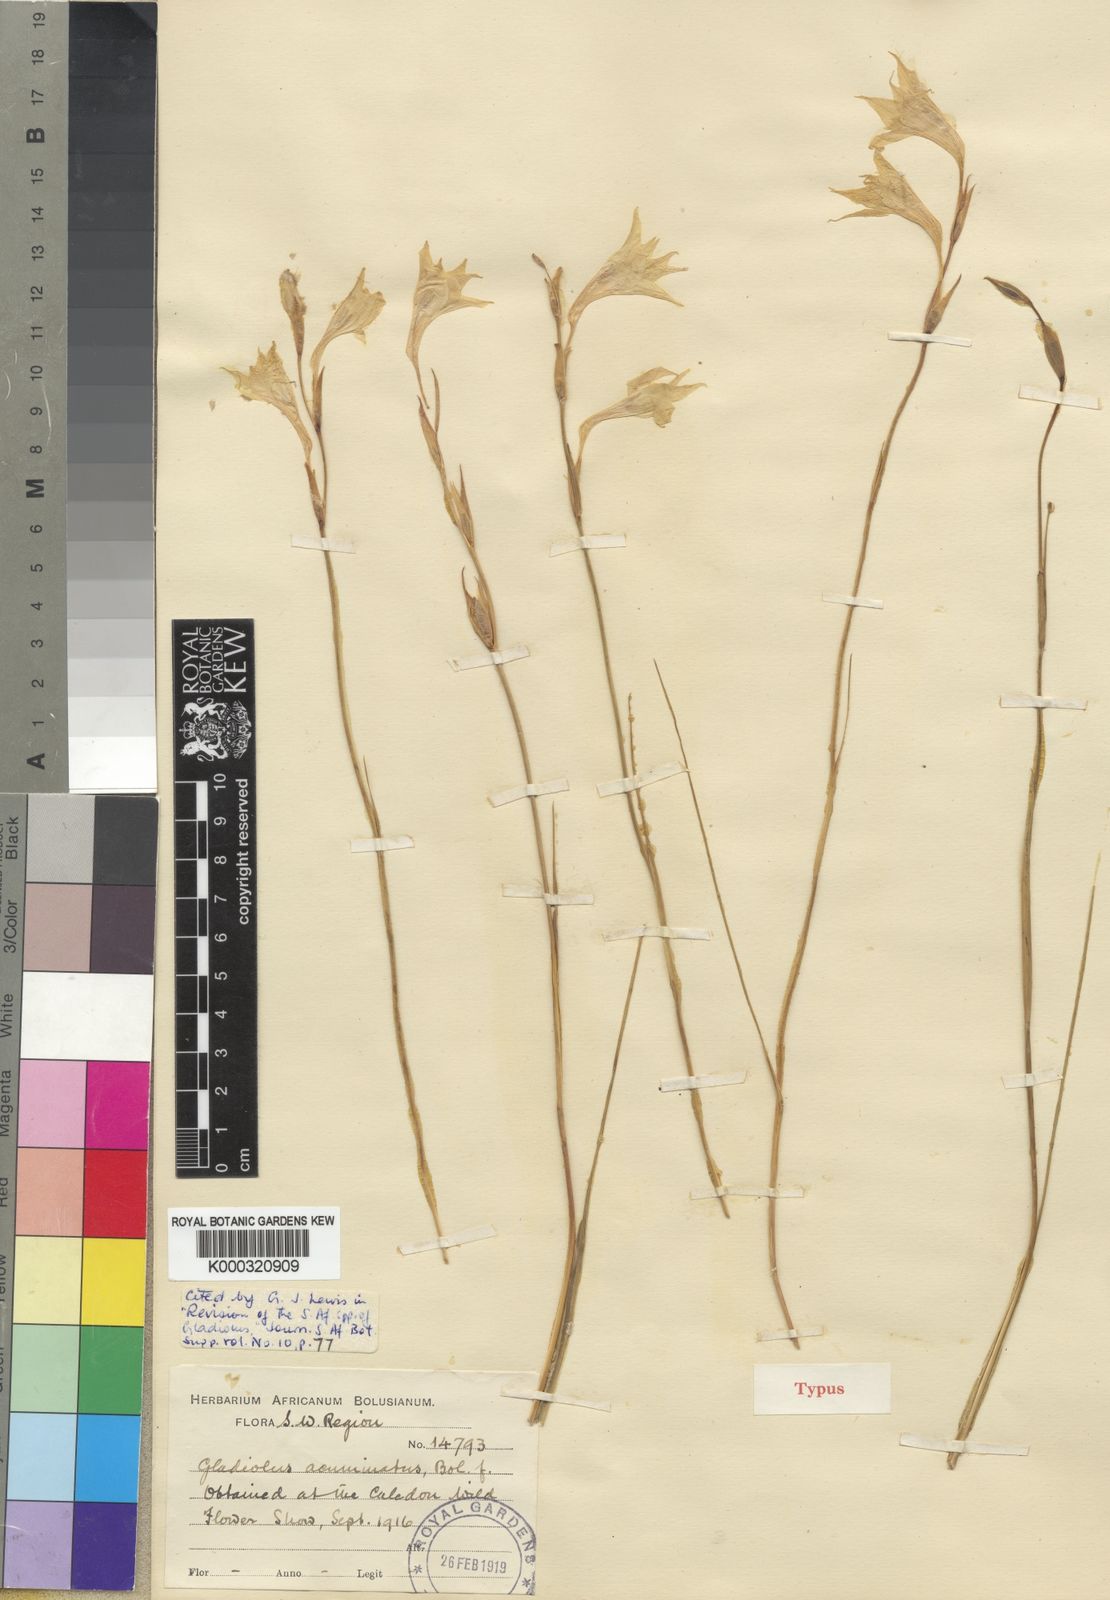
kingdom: Plantae
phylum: Tracheophyta
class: Liliopsida
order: Asparagales
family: Iridaceae
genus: Gladiolus
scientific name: Gladiolus acuminatus
